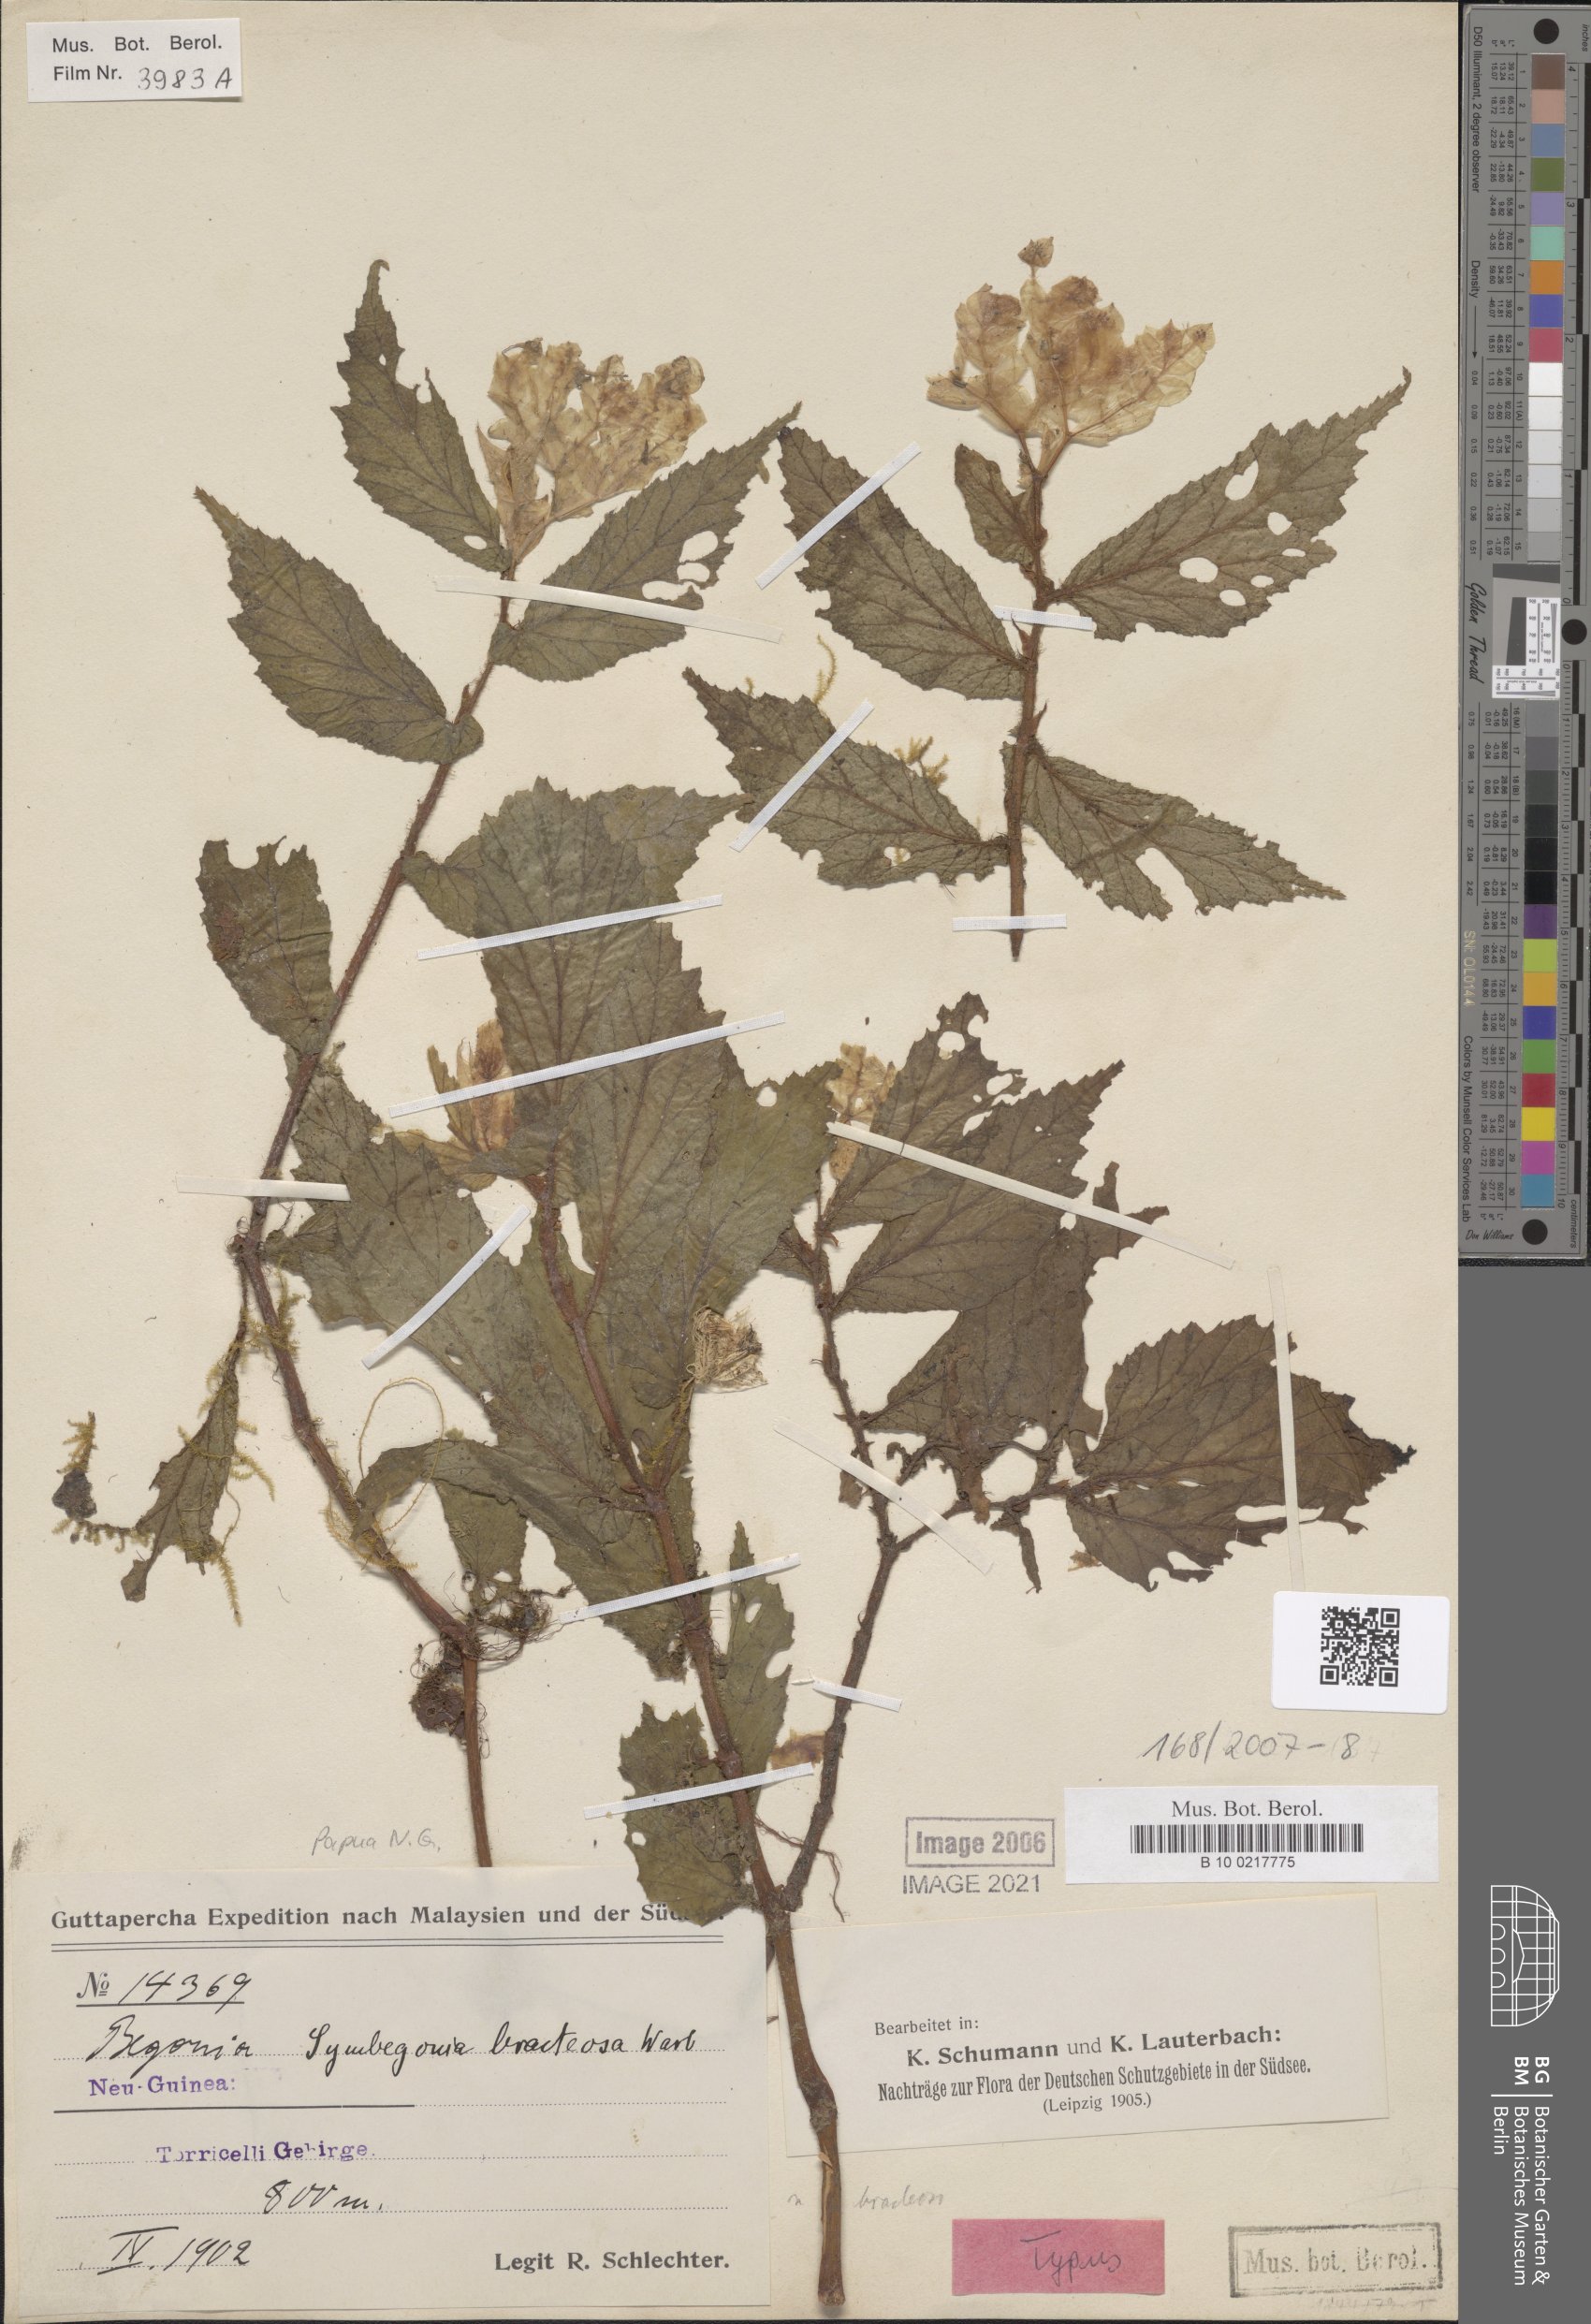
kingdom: Plantae
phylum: Tracheophyta
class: Magnoliopsida
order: Cucurbitales
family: Begoniaceae
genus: Begonia
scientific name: Begonia symbracteosa
